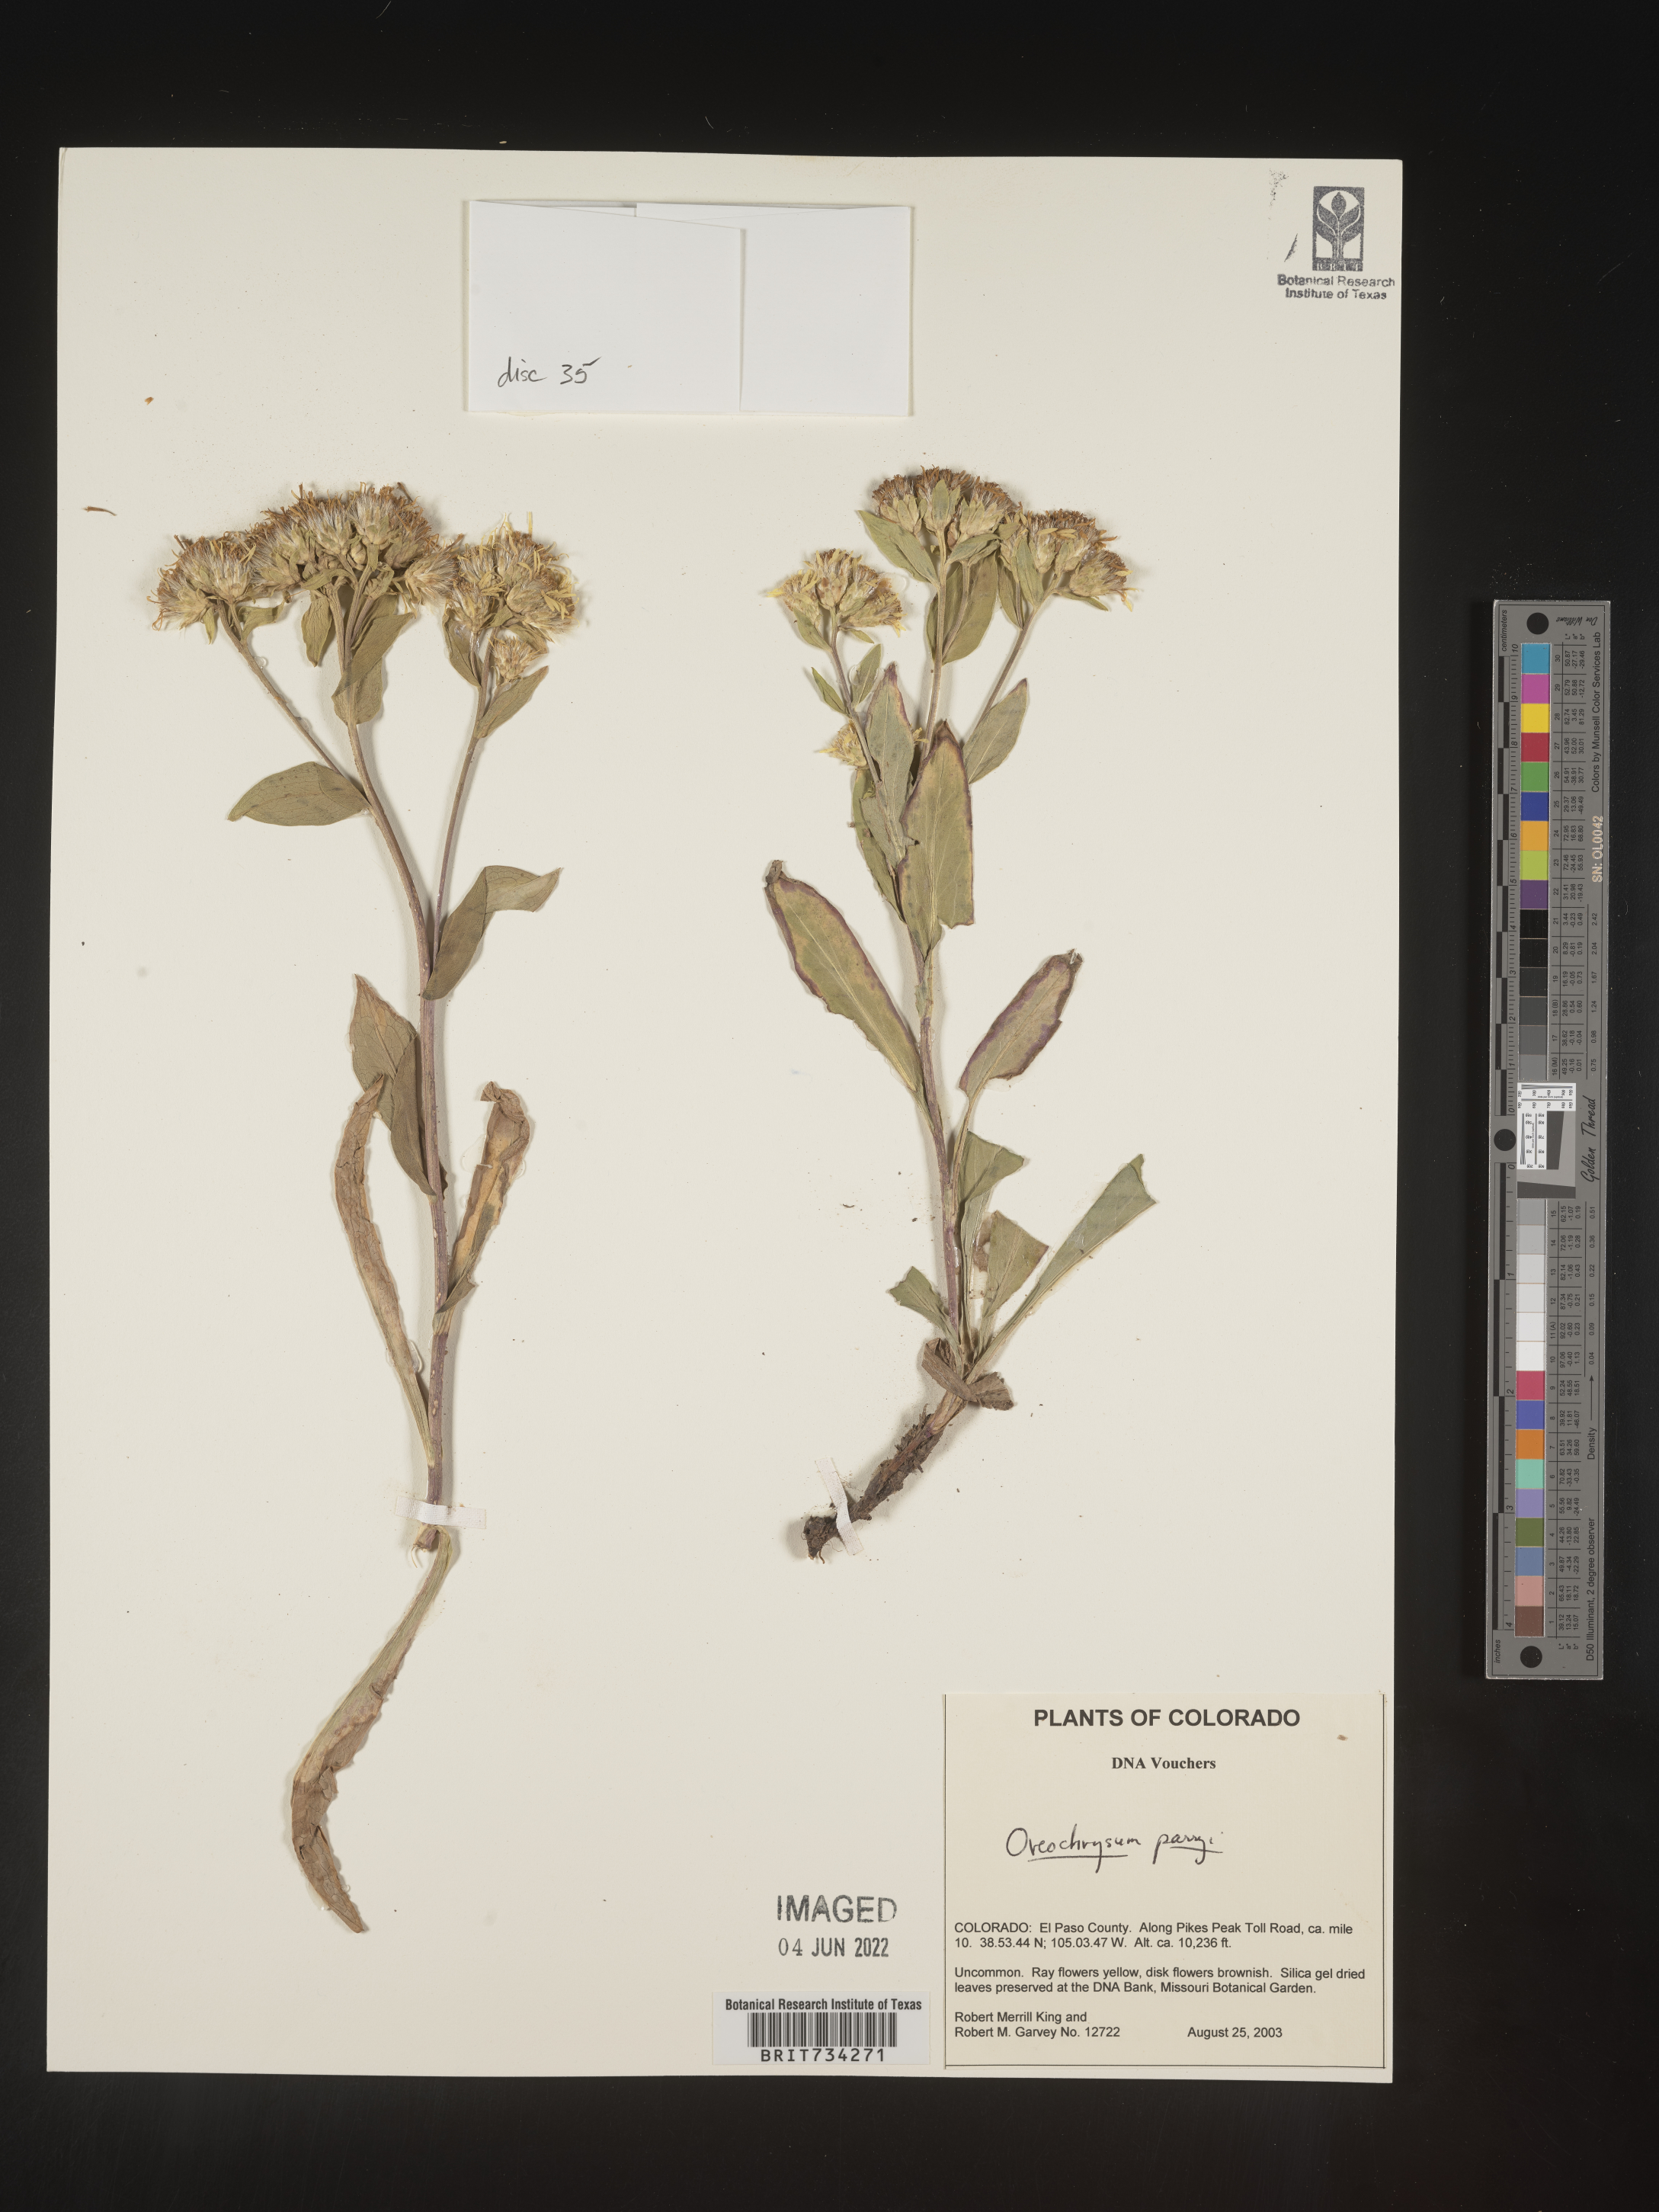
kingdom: Plantae
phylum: Tracheophyta
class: Magnoliopsida
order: Asterales
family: Asteraceae
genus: Oreochrysum
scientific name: Oreochrysum parryi
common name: Parry's goldenweed
